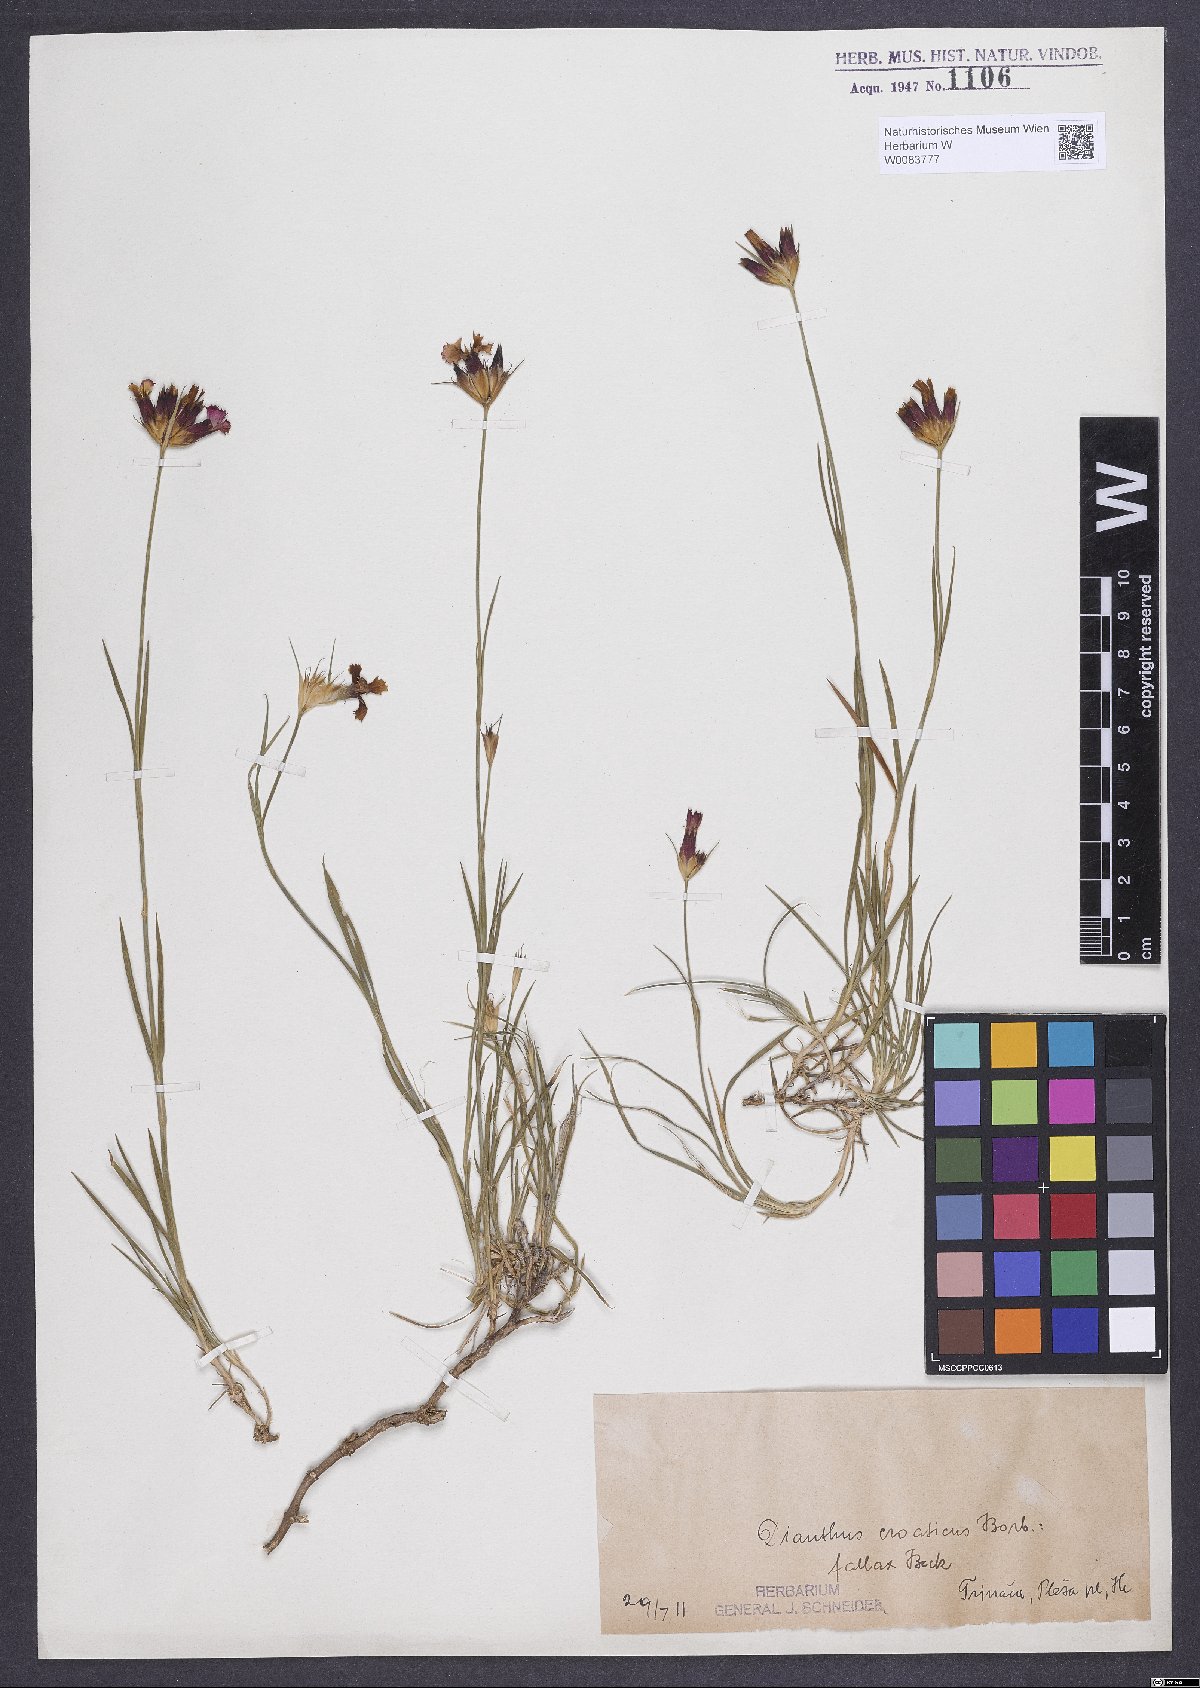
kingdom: Plantae
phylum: Tracheophyta
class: Magnoliopsida
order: Caryophyllales
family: Caryophyllaceae
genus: Dianthus
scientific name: Dianthus giganteus
